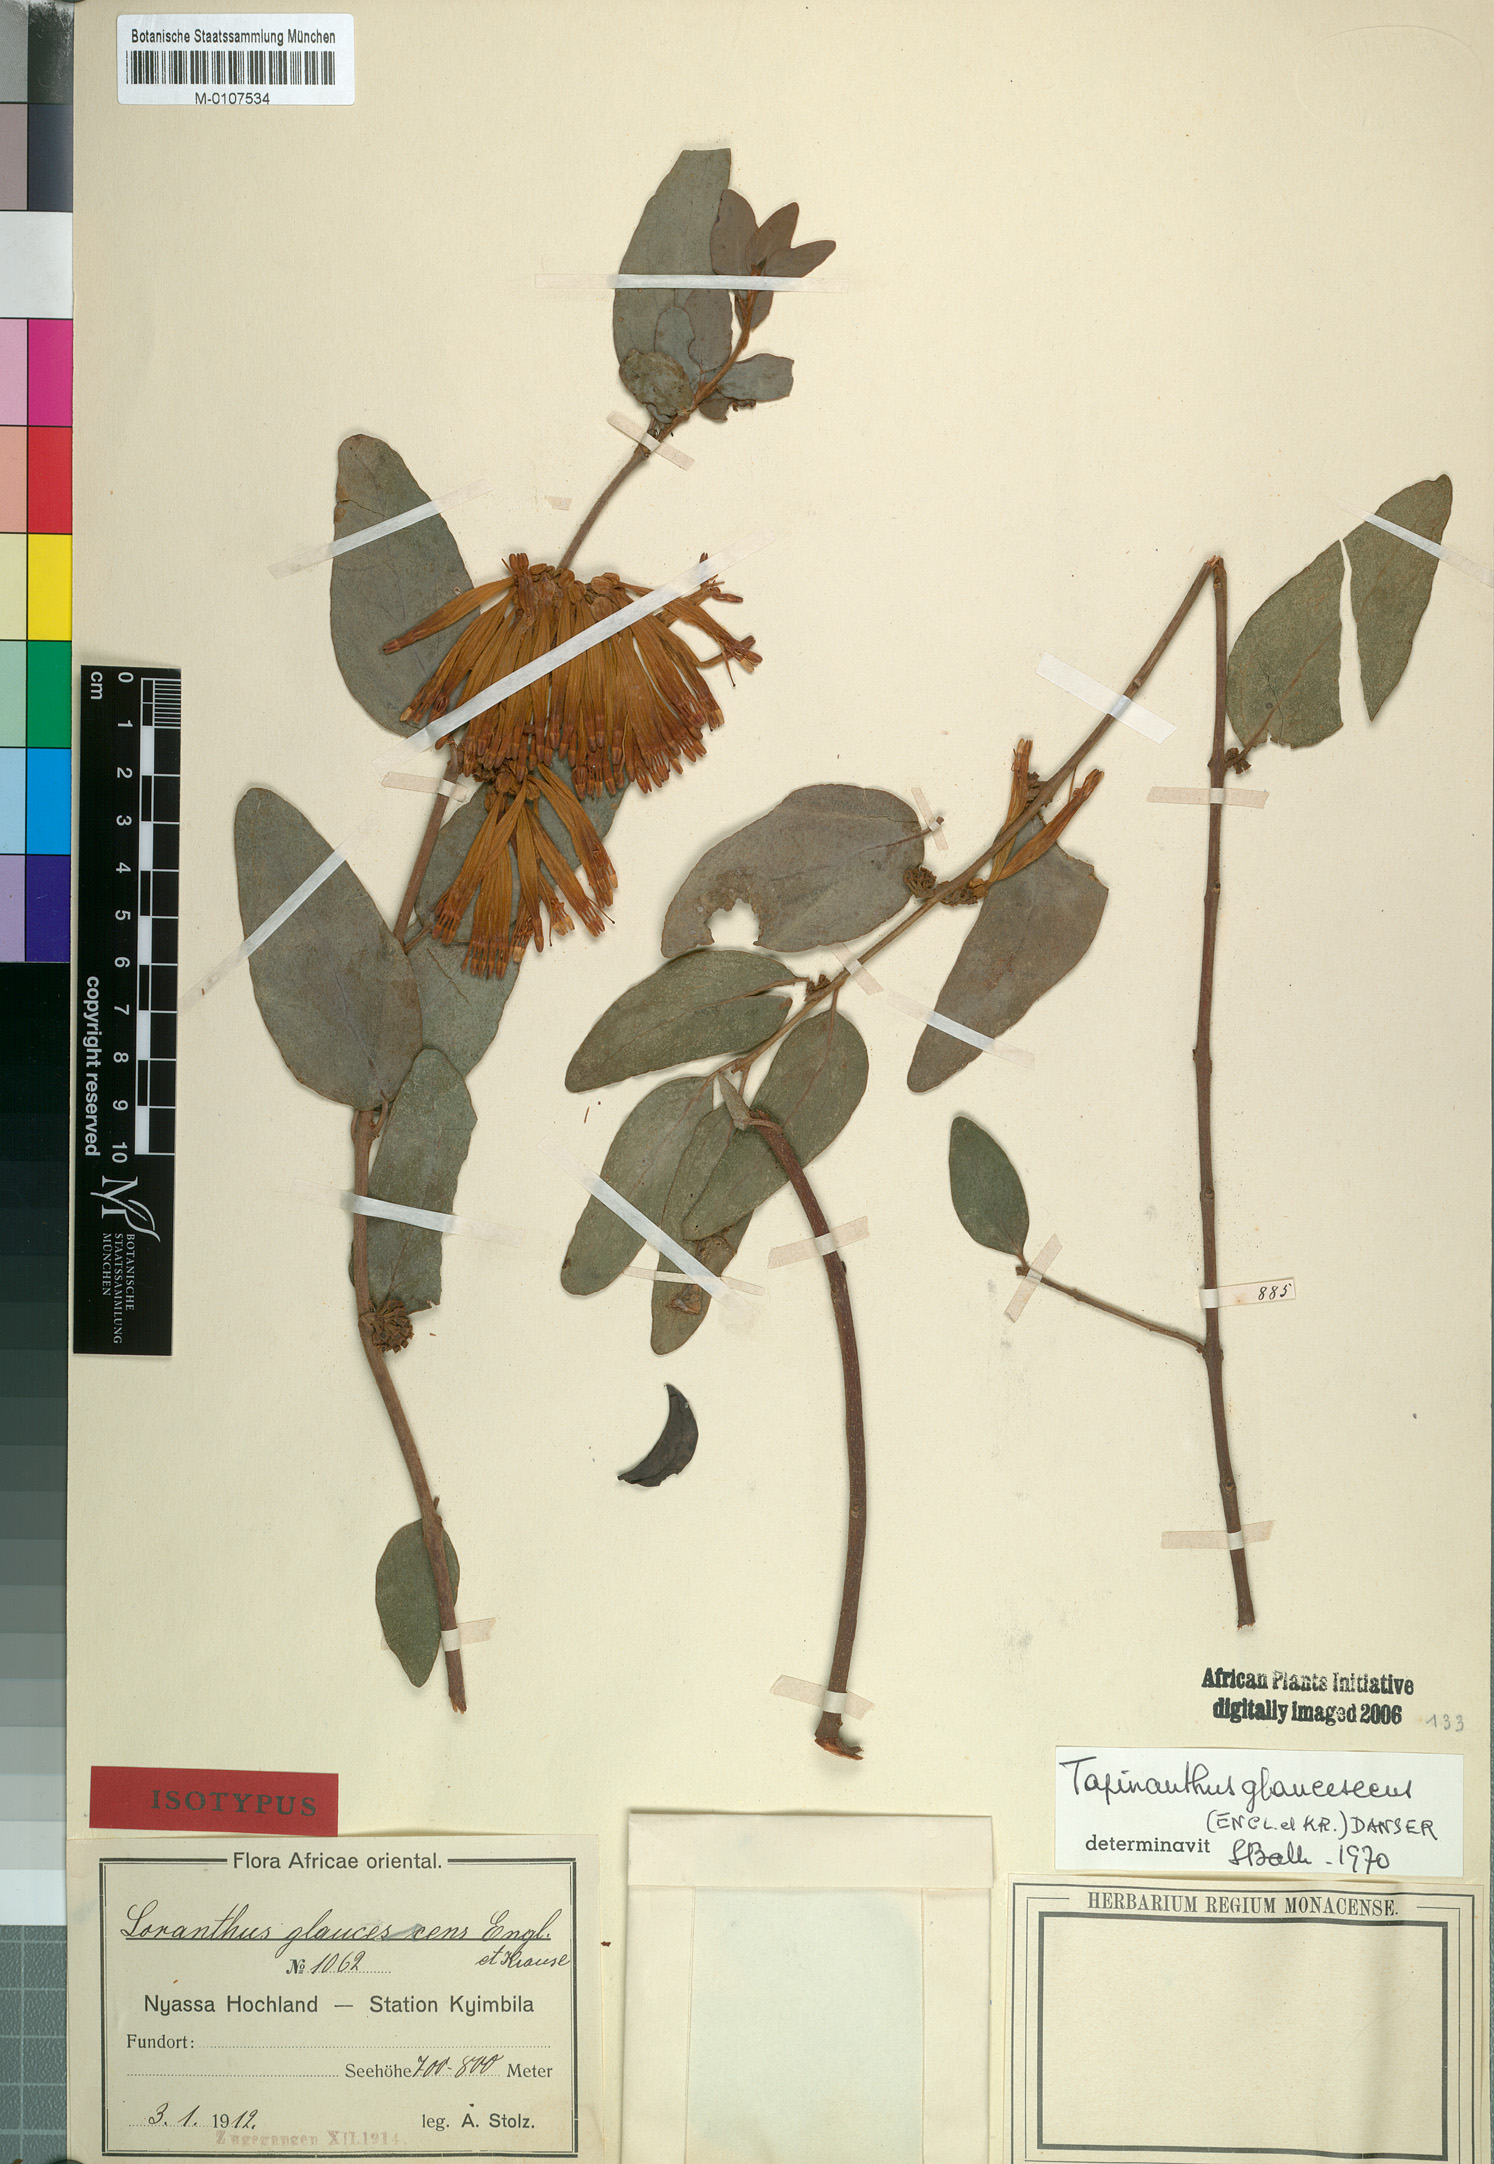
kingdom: Plantae
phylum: Tracheophyta
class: Magnoliopsida
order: Santalales
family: Loranthaceae
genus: Agelanthus
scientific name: Agelanthus pungu
